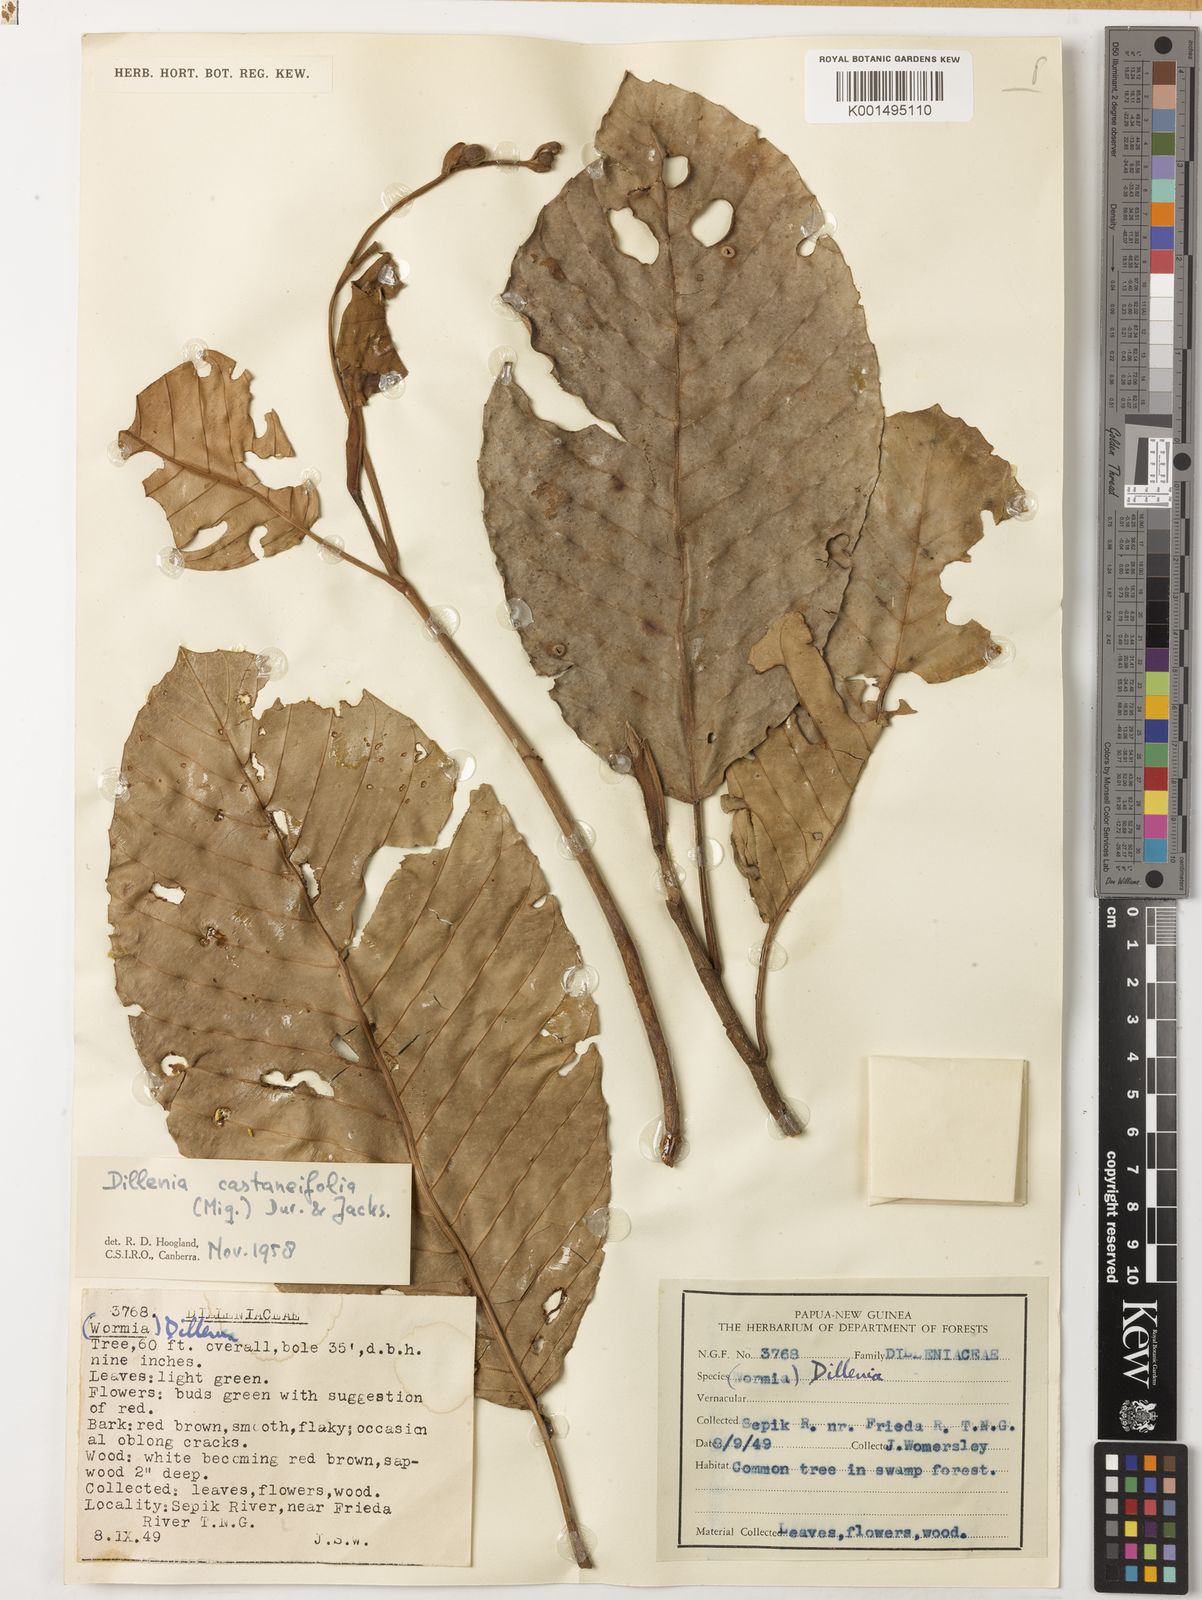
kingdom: Plantae
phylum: Tracheophyta
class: Magnoliopsida
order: Dilleniales
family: Dilleniaceae
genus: Dillenia
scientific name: Dillenia castaneifolia
